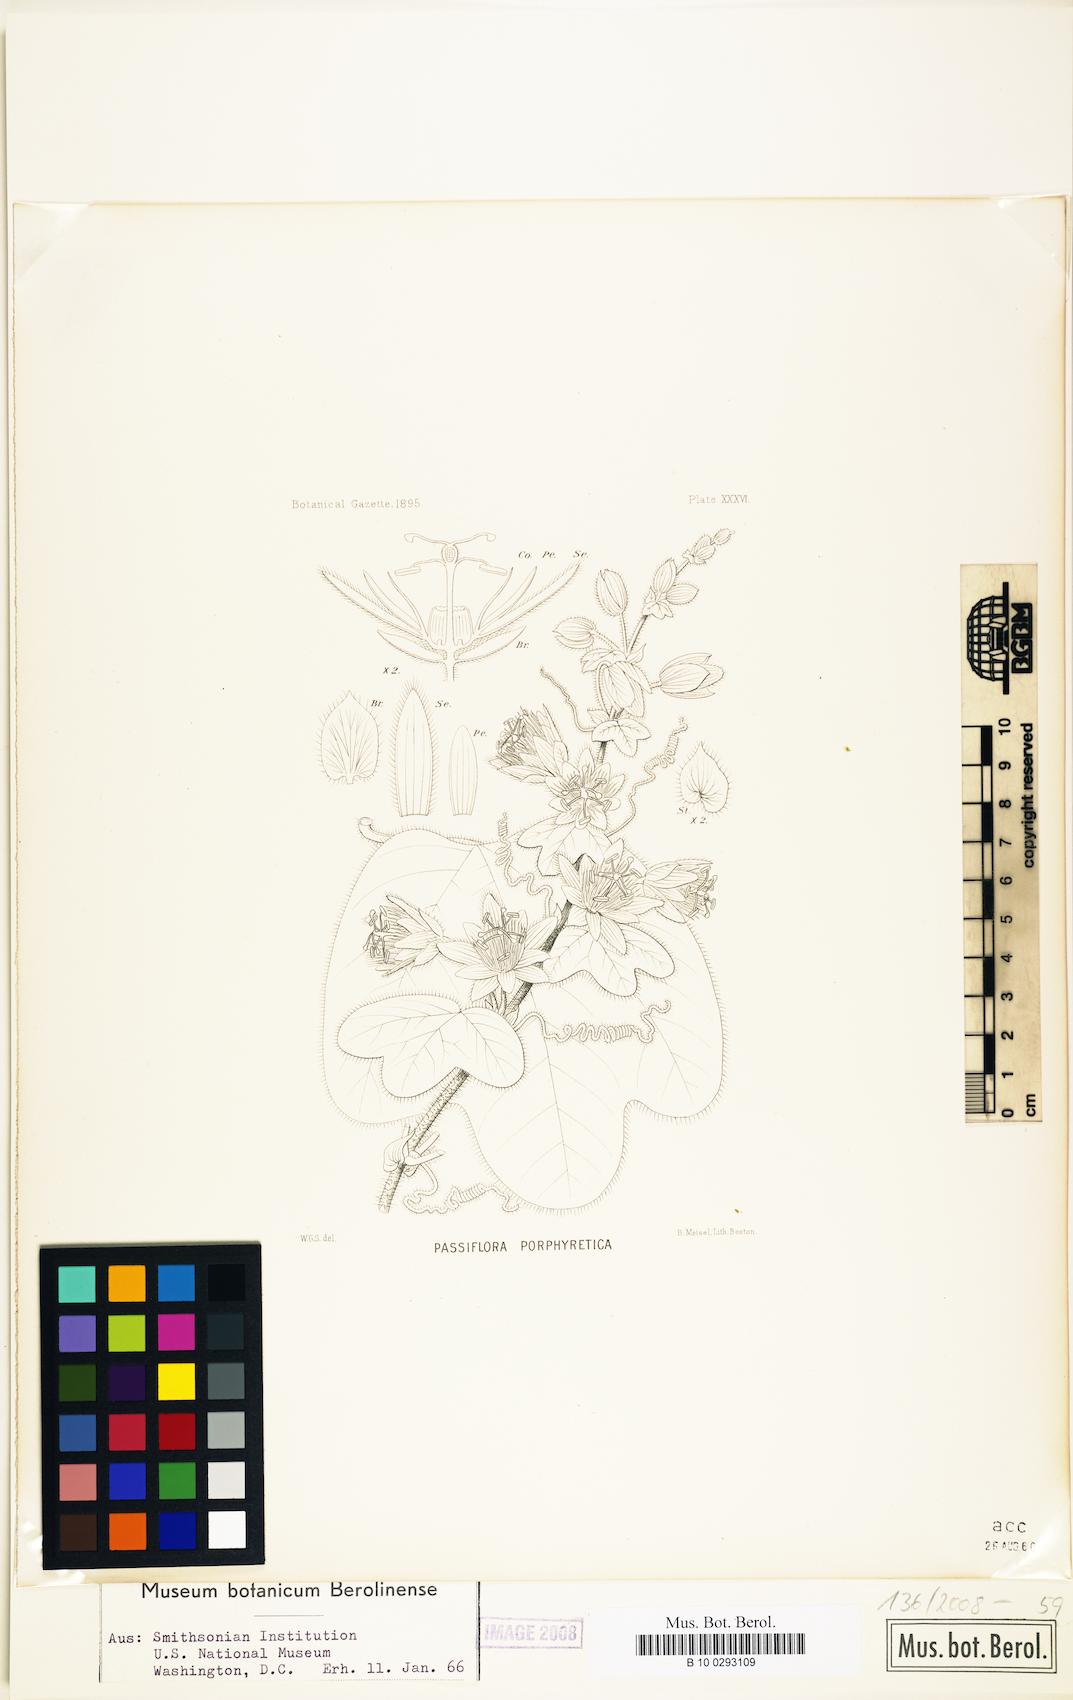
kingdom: Plantae
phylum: Tracheophyta
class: Magnoliopsida
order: Malpighiales
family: Passifloraceae
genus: Passiflora
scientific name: Passiflora porphyretica
